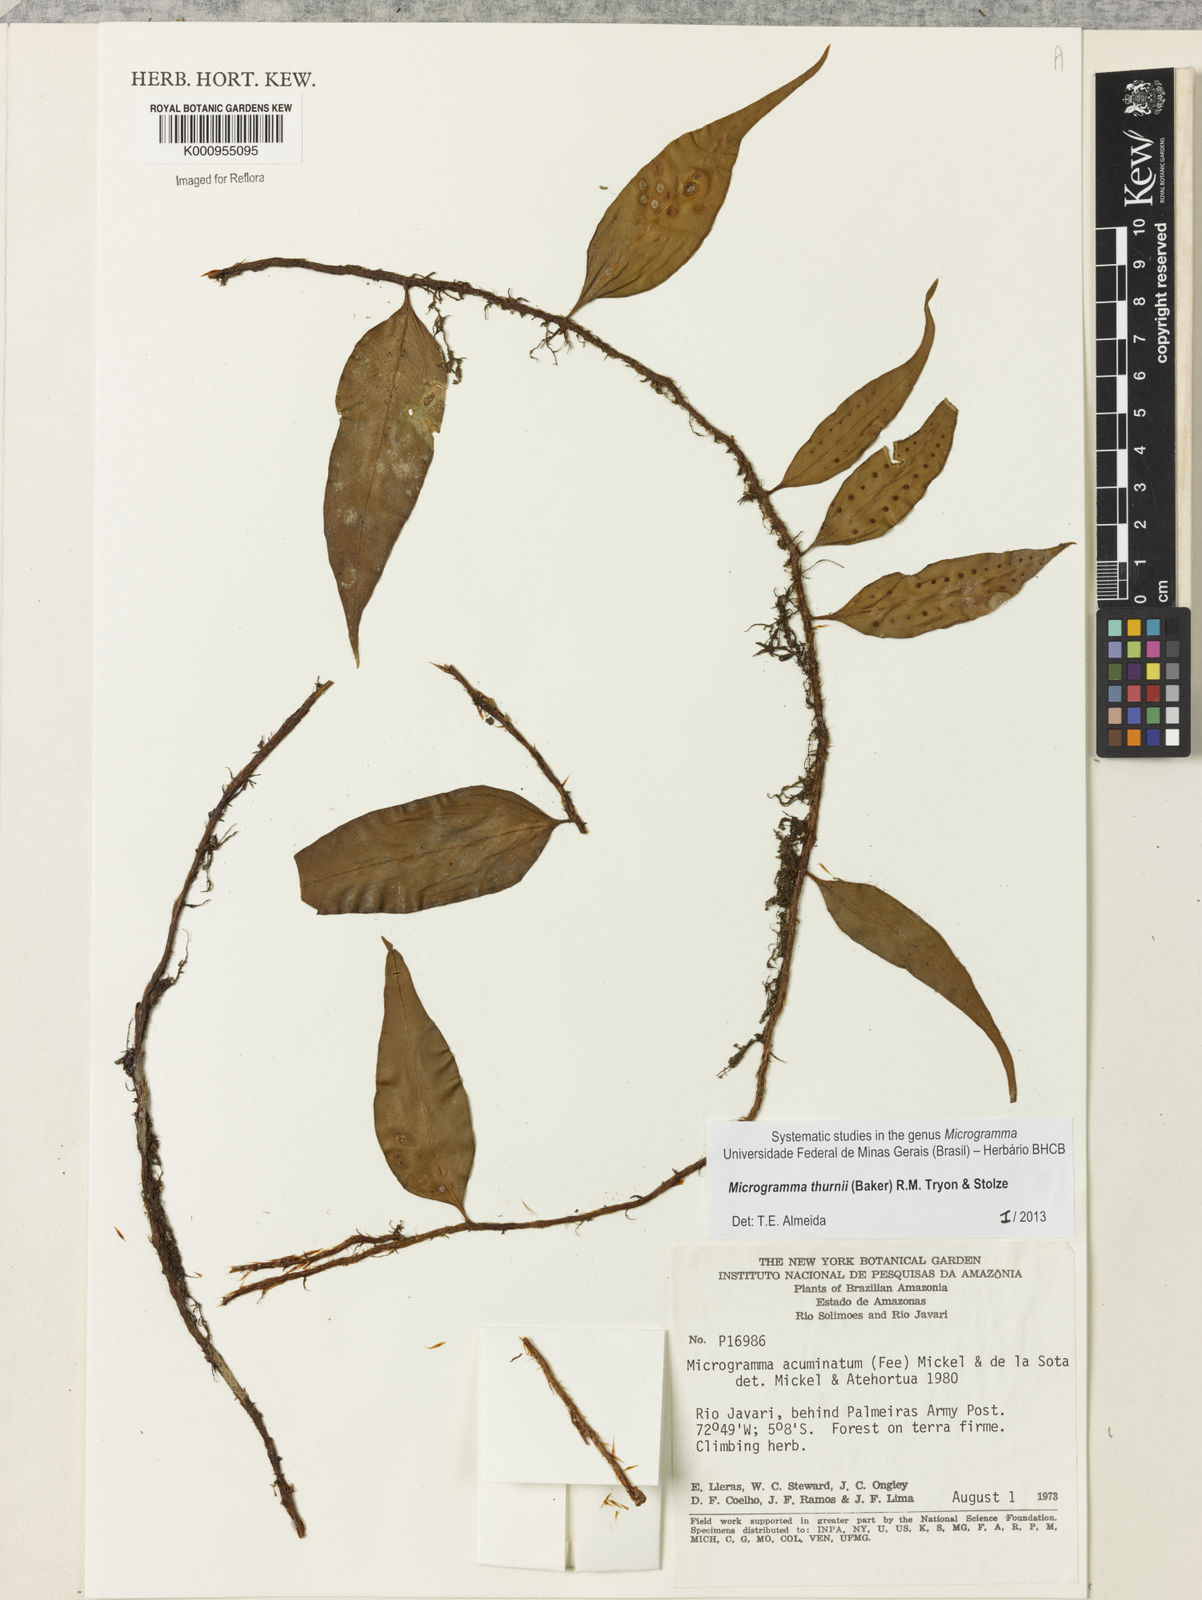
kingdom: Plantae
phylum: Tracheophyta
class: Polypodiopsida
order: Polypodiales
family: Polypodiaceae
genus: Microgramma
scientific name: Microgramma thurnii
